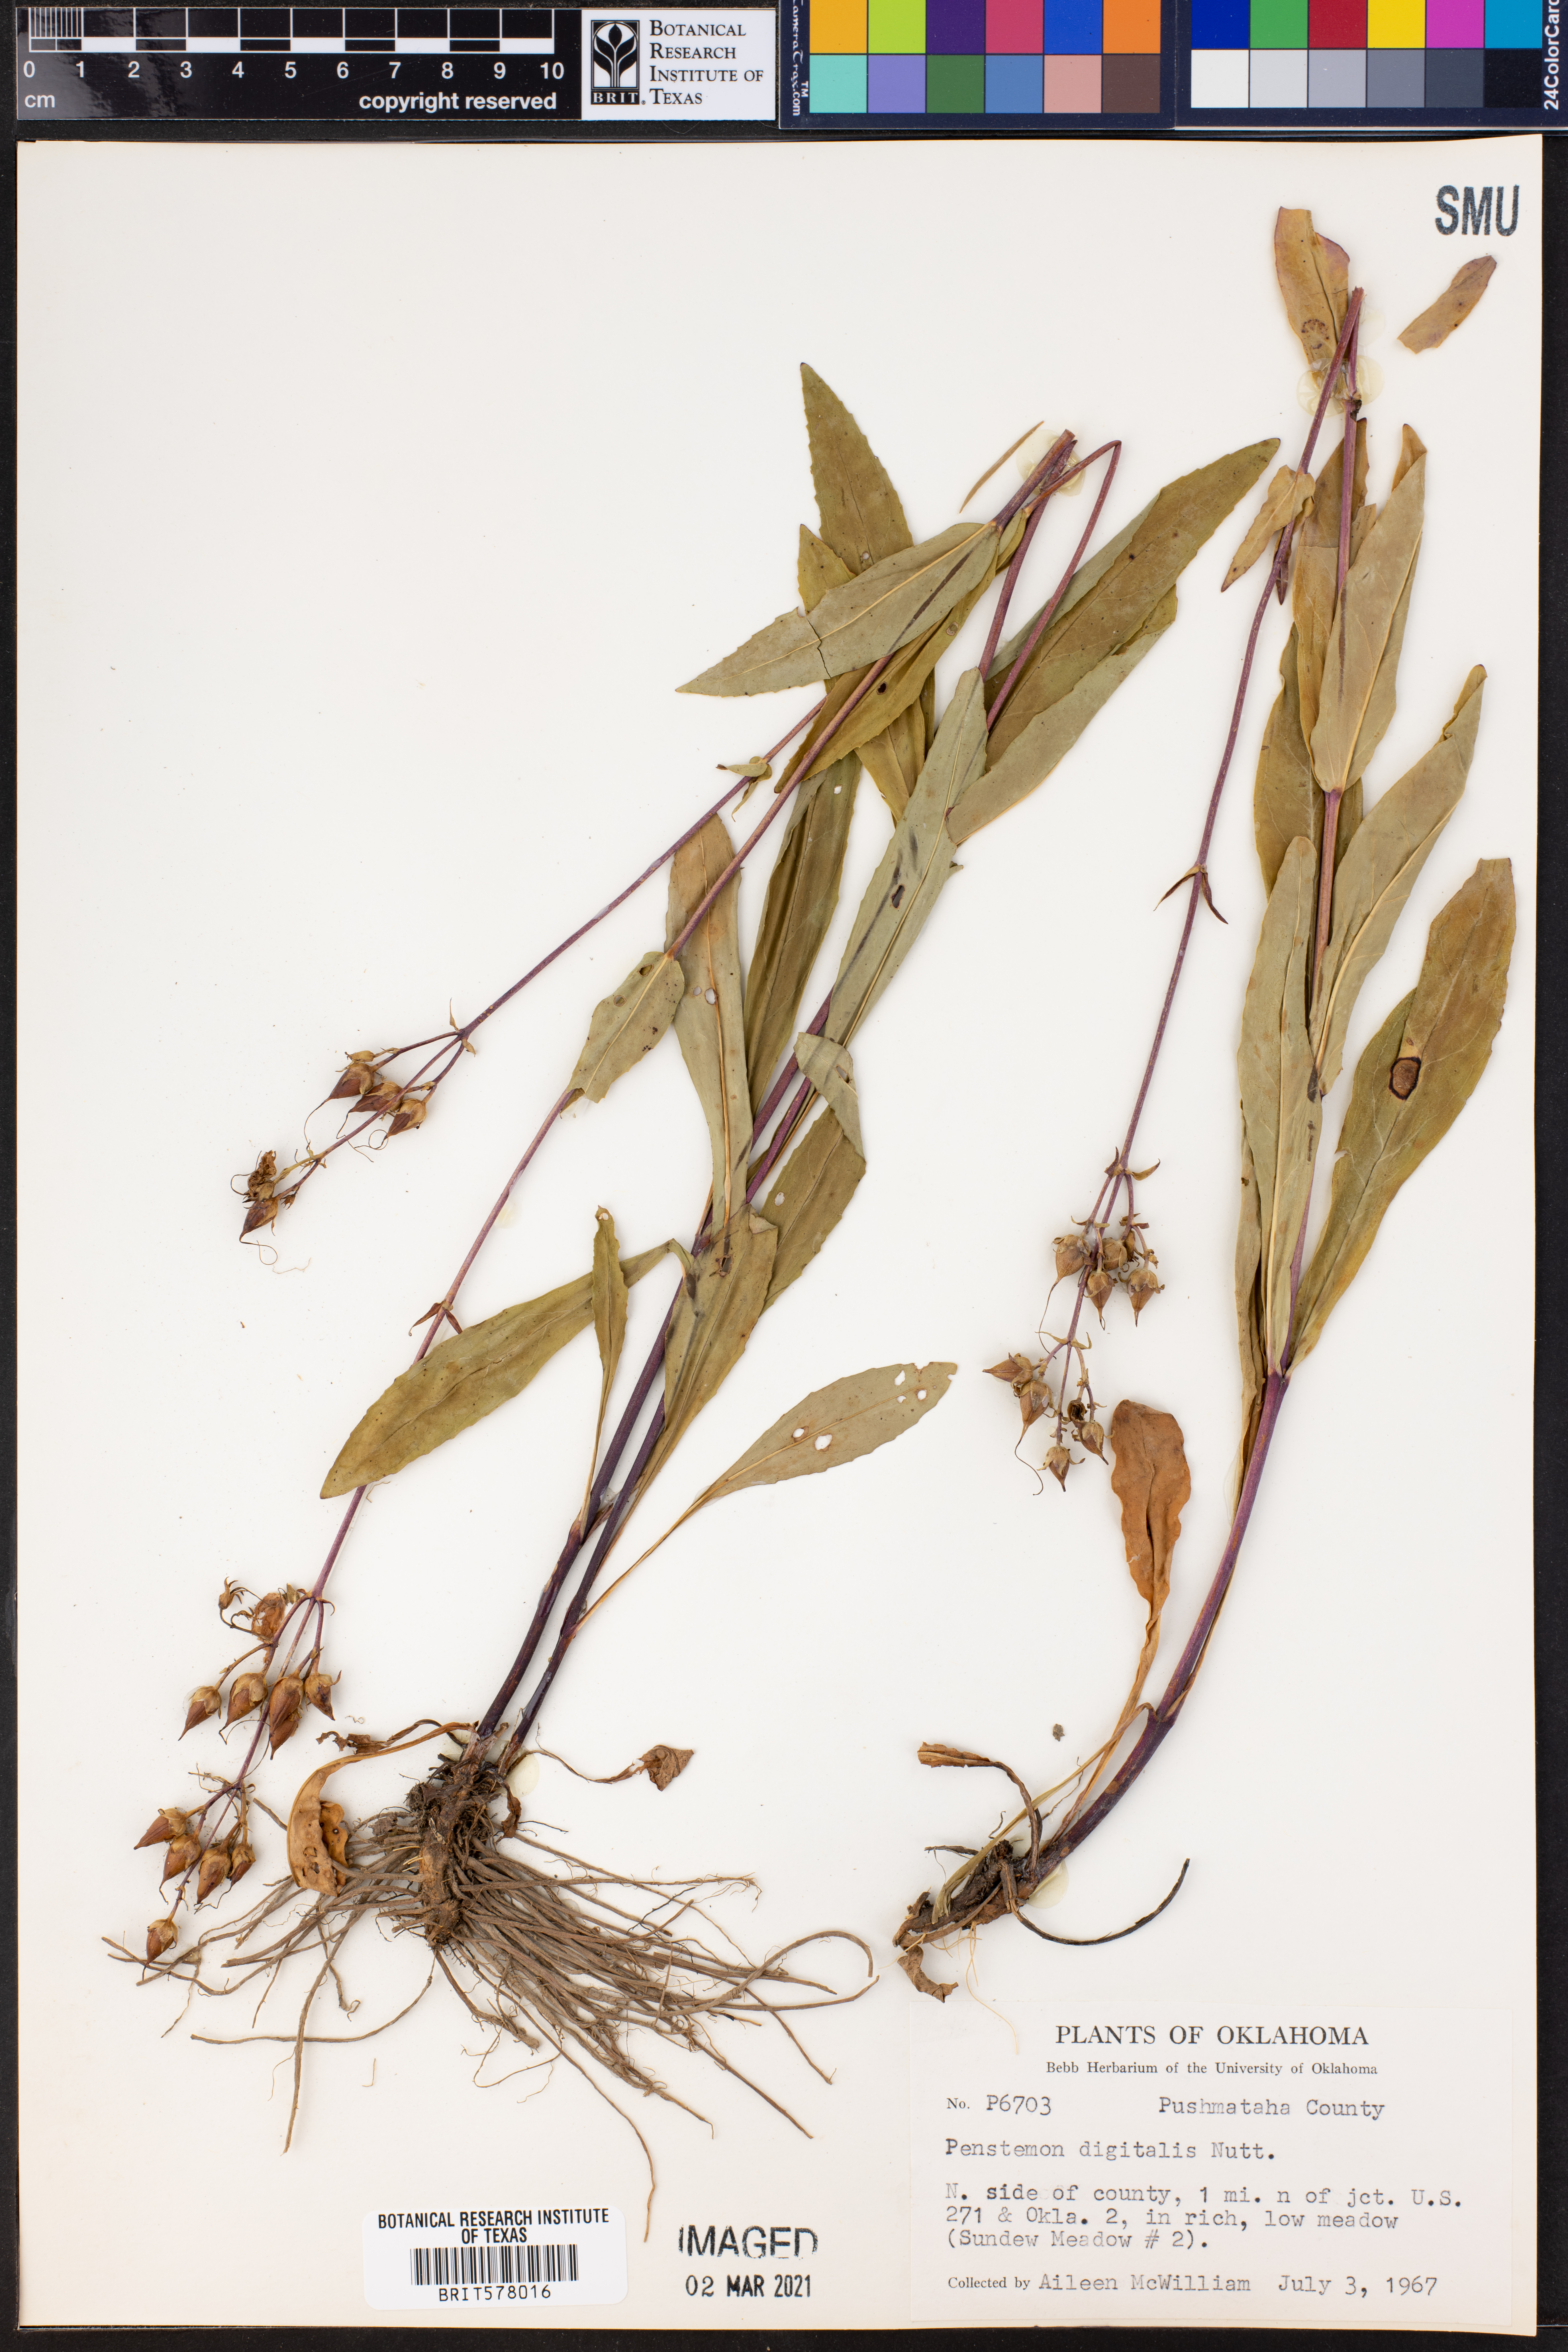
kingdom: Plantae
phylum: Tracheophyta
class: Magnoliopsida
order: Lamiales
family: Plantaginaceae
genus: Penstemon
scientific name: Penstemon digitalis
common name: Foxglove beardtongue
